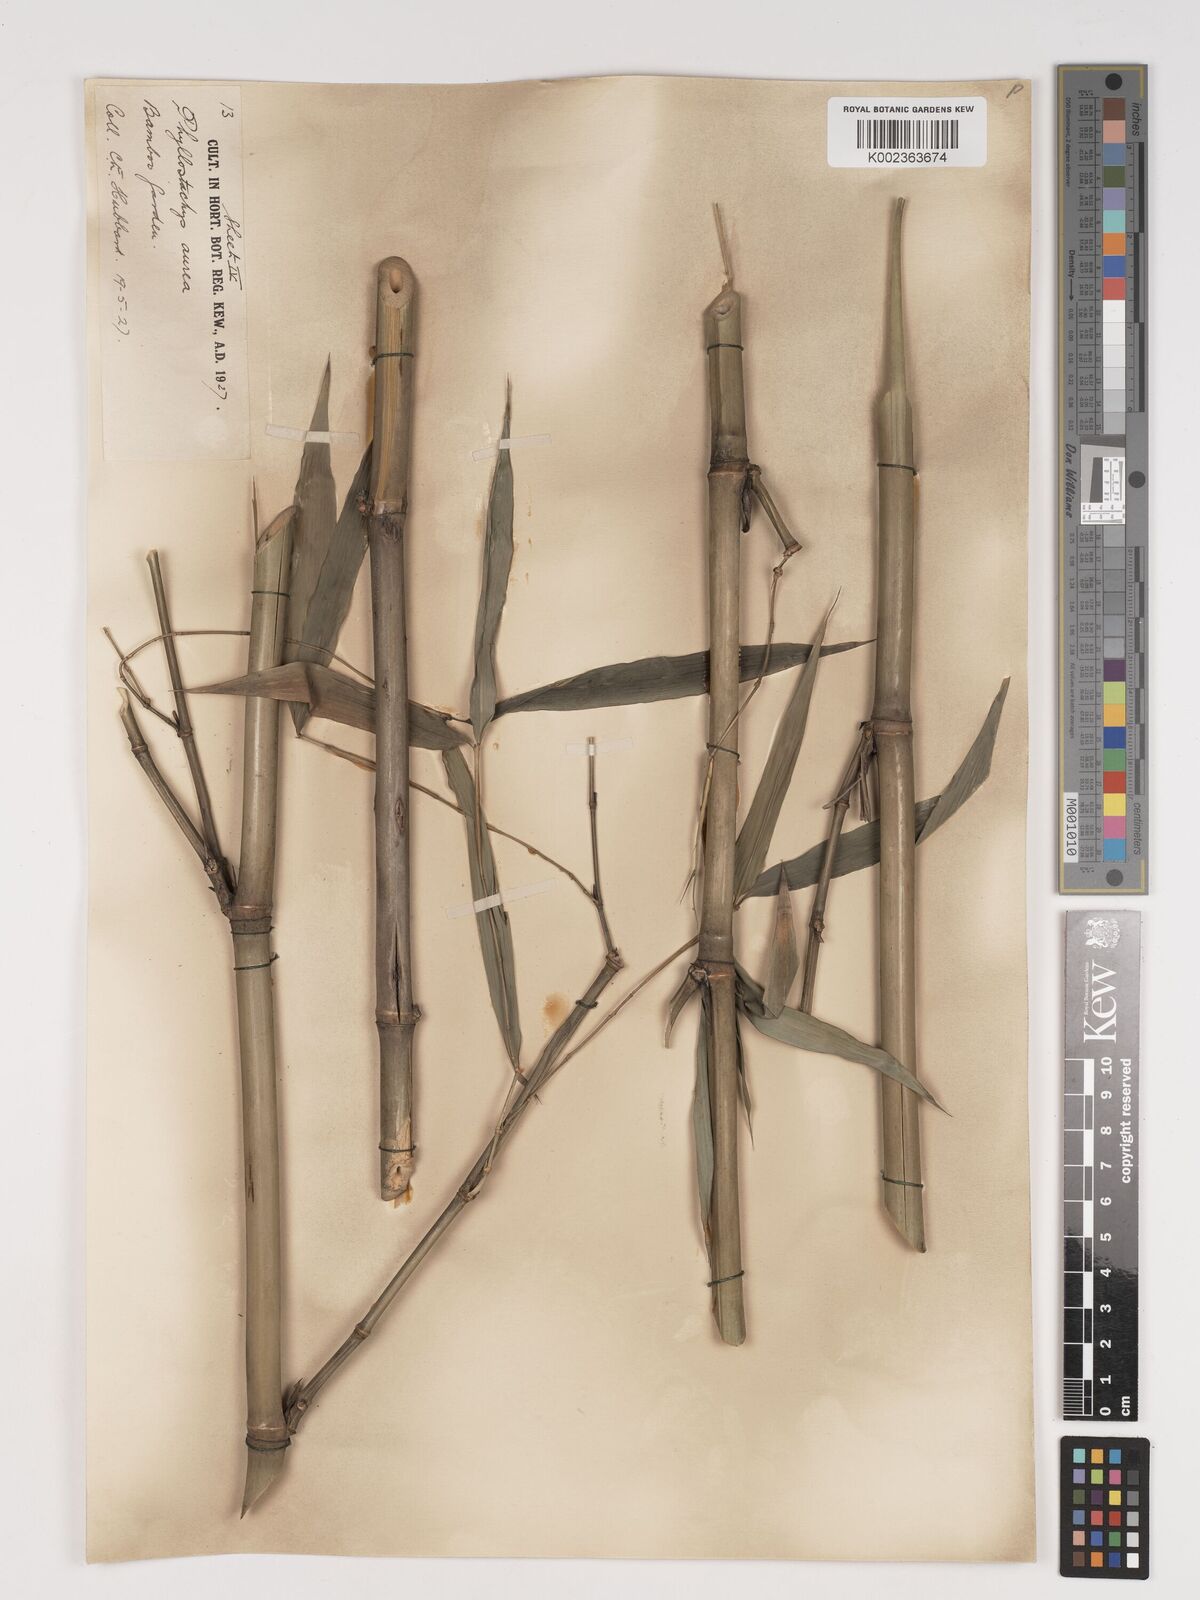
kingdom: Plantae
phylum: Tracheophyta
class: Liliopsida
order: Poales
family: Poaceae
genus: Phyllostachys
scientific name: Phyllostachys aurea
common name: Golden bamboo
